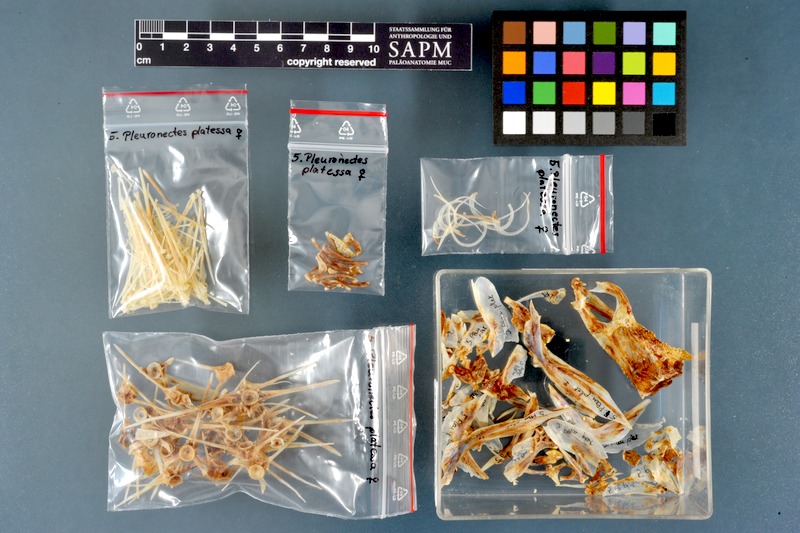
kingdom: Animalia
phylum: Chordata
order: Pleuronectiformes
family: Pleuronectidae
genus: Pleuronectes
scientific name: Pleuronectes platessa
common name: Plaice
